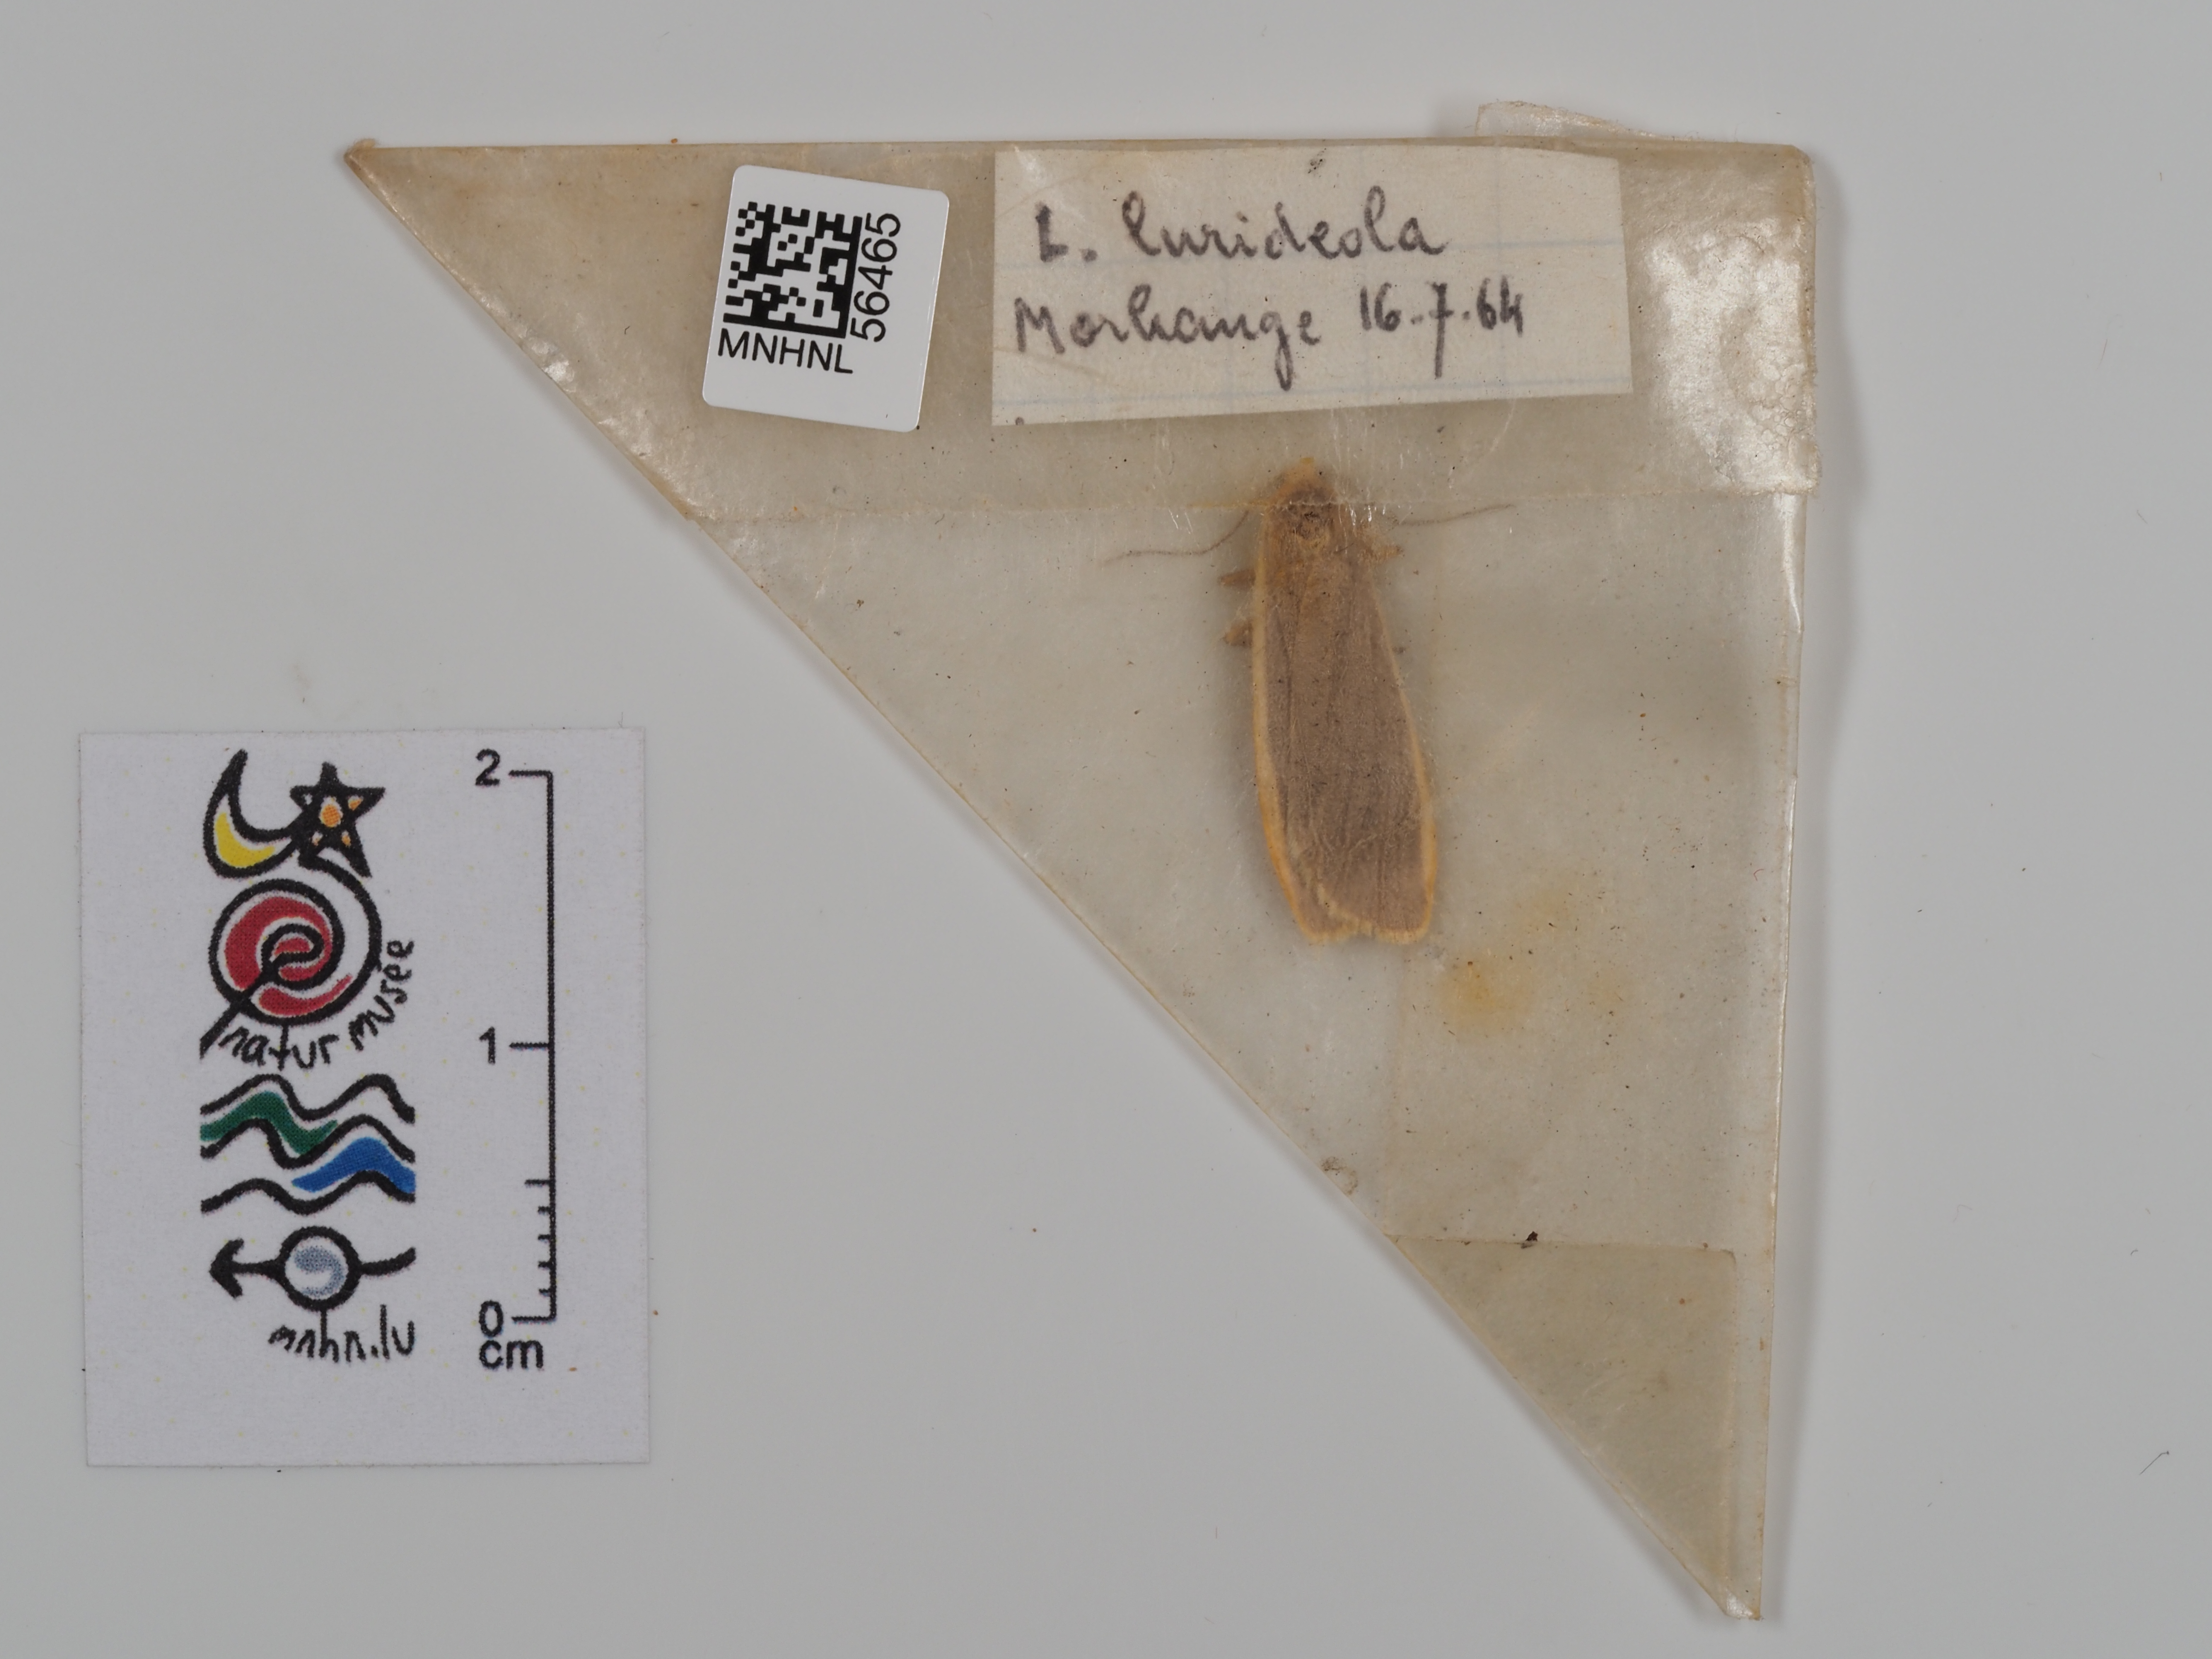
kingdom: Animalia
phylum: Arthropoda
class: Insecta
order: Lepidoptera
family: Erebidae
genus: Nyea
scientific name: Nyea lurideola
